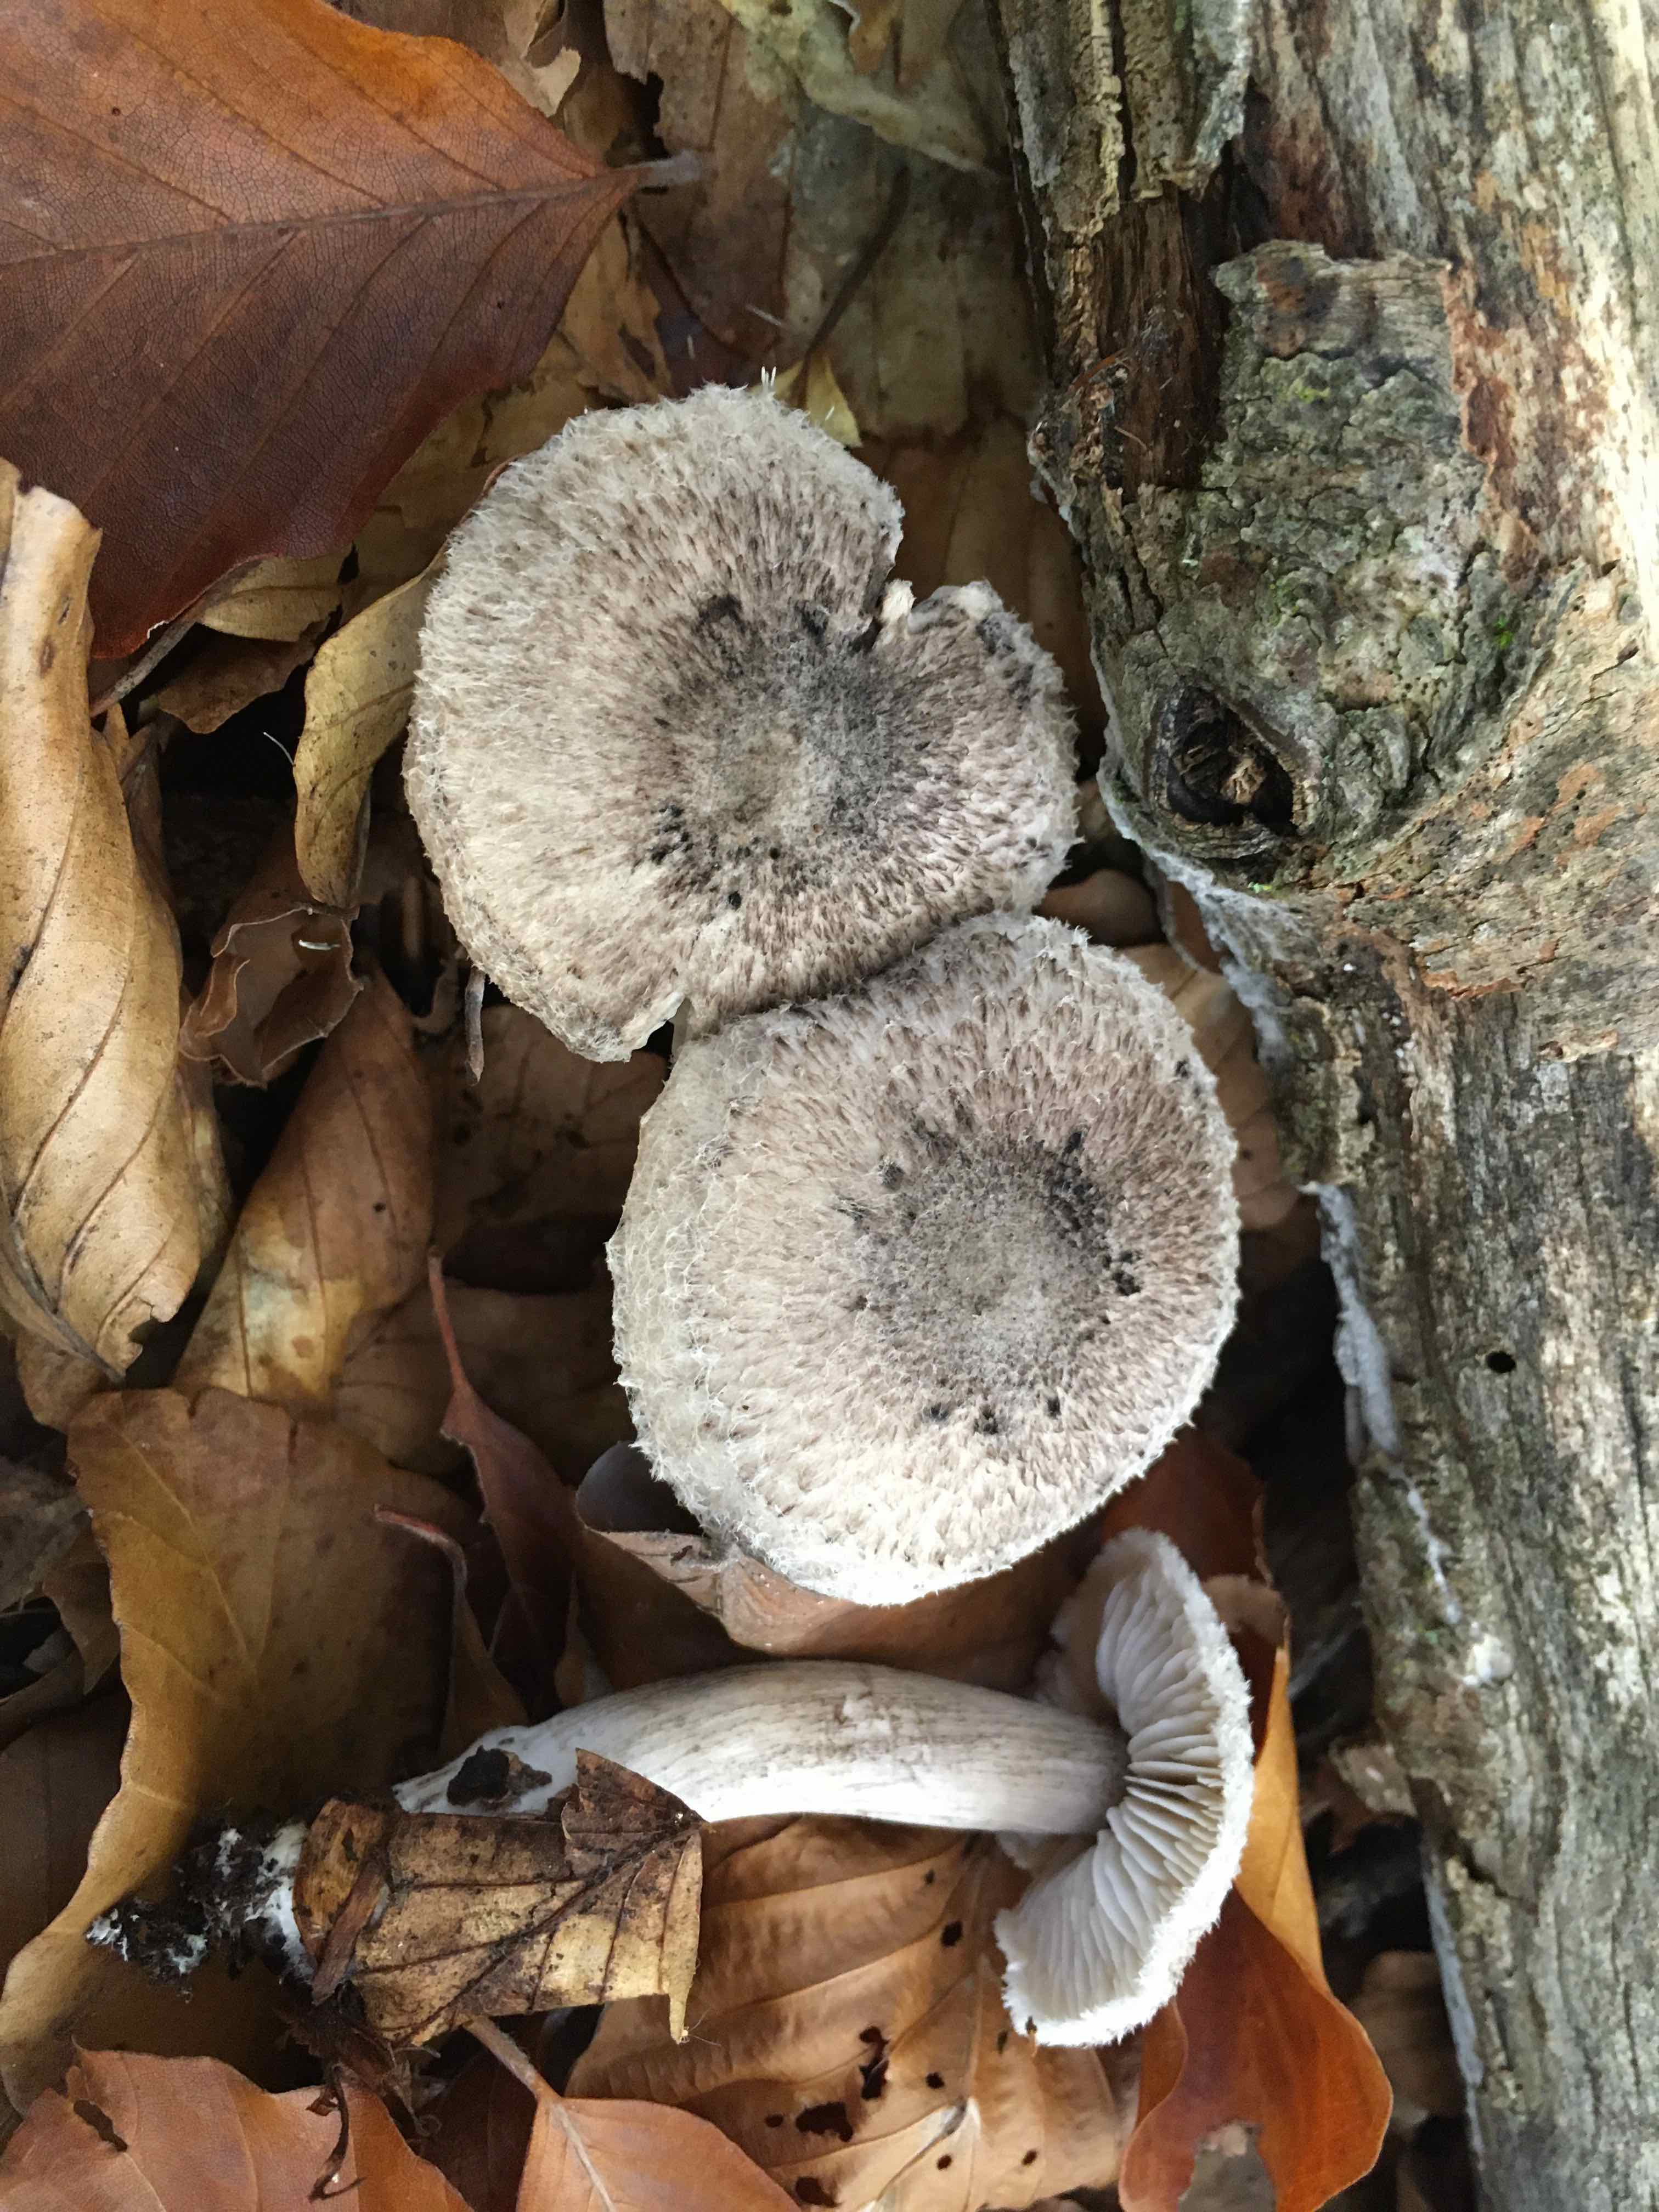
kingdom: Fungi
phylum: Basidiomycota
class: Agaricomycetes
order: Agaricales
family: Tricholomataceae
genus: Tricholoma
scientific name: Tricholoma atrosquamosum
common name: sortskællet ridderhat
